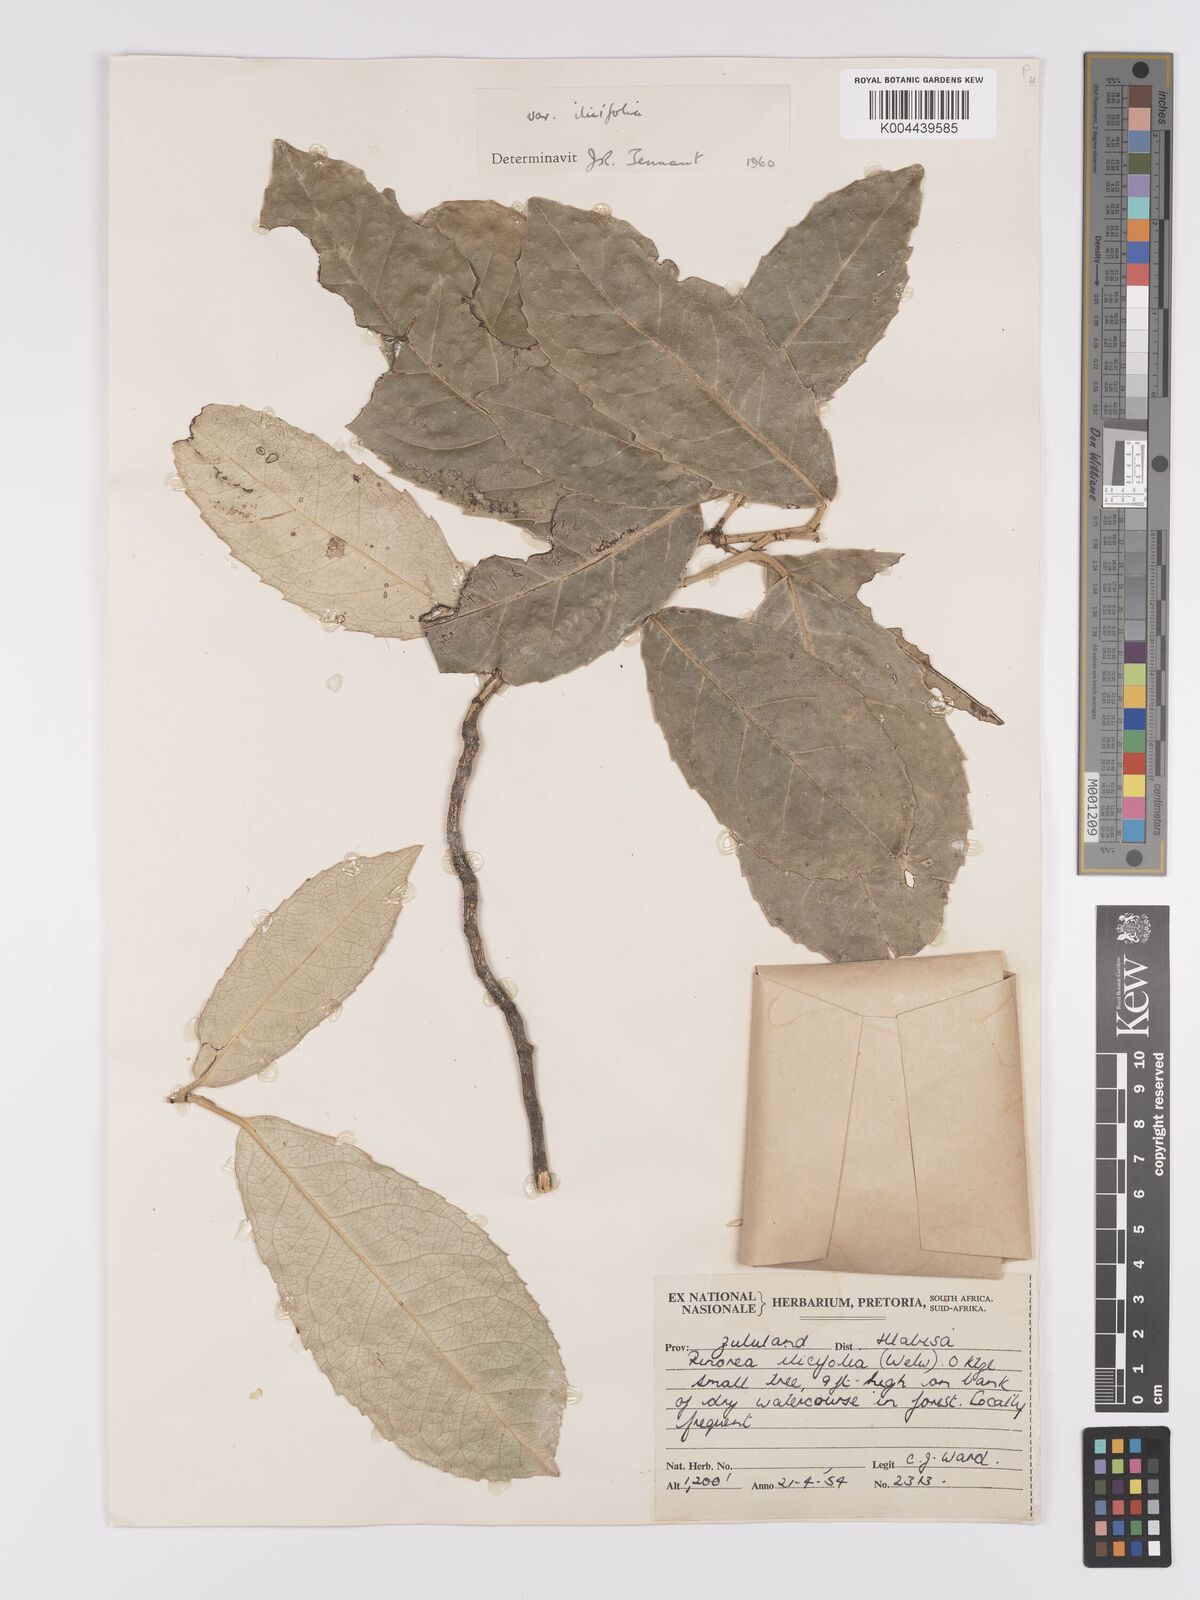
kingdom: Plantae
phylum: Tracheophyta
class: Magnoliopsida
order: Malpighiales
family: Violaceae
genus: Rinorea
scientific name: Rinorea ilicifolia
